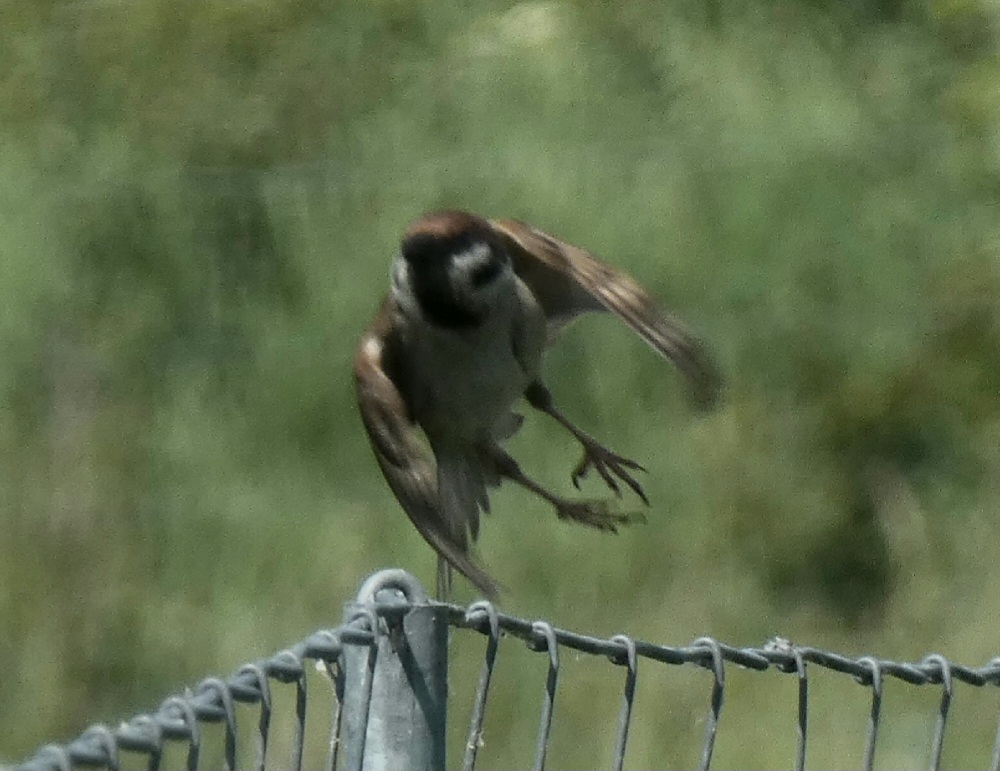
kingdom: Animalia
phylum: Chordata
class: Aves
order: Passeriformes
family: Passeridae
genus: Passer
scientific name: Passer montanus
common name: Skovspurv
